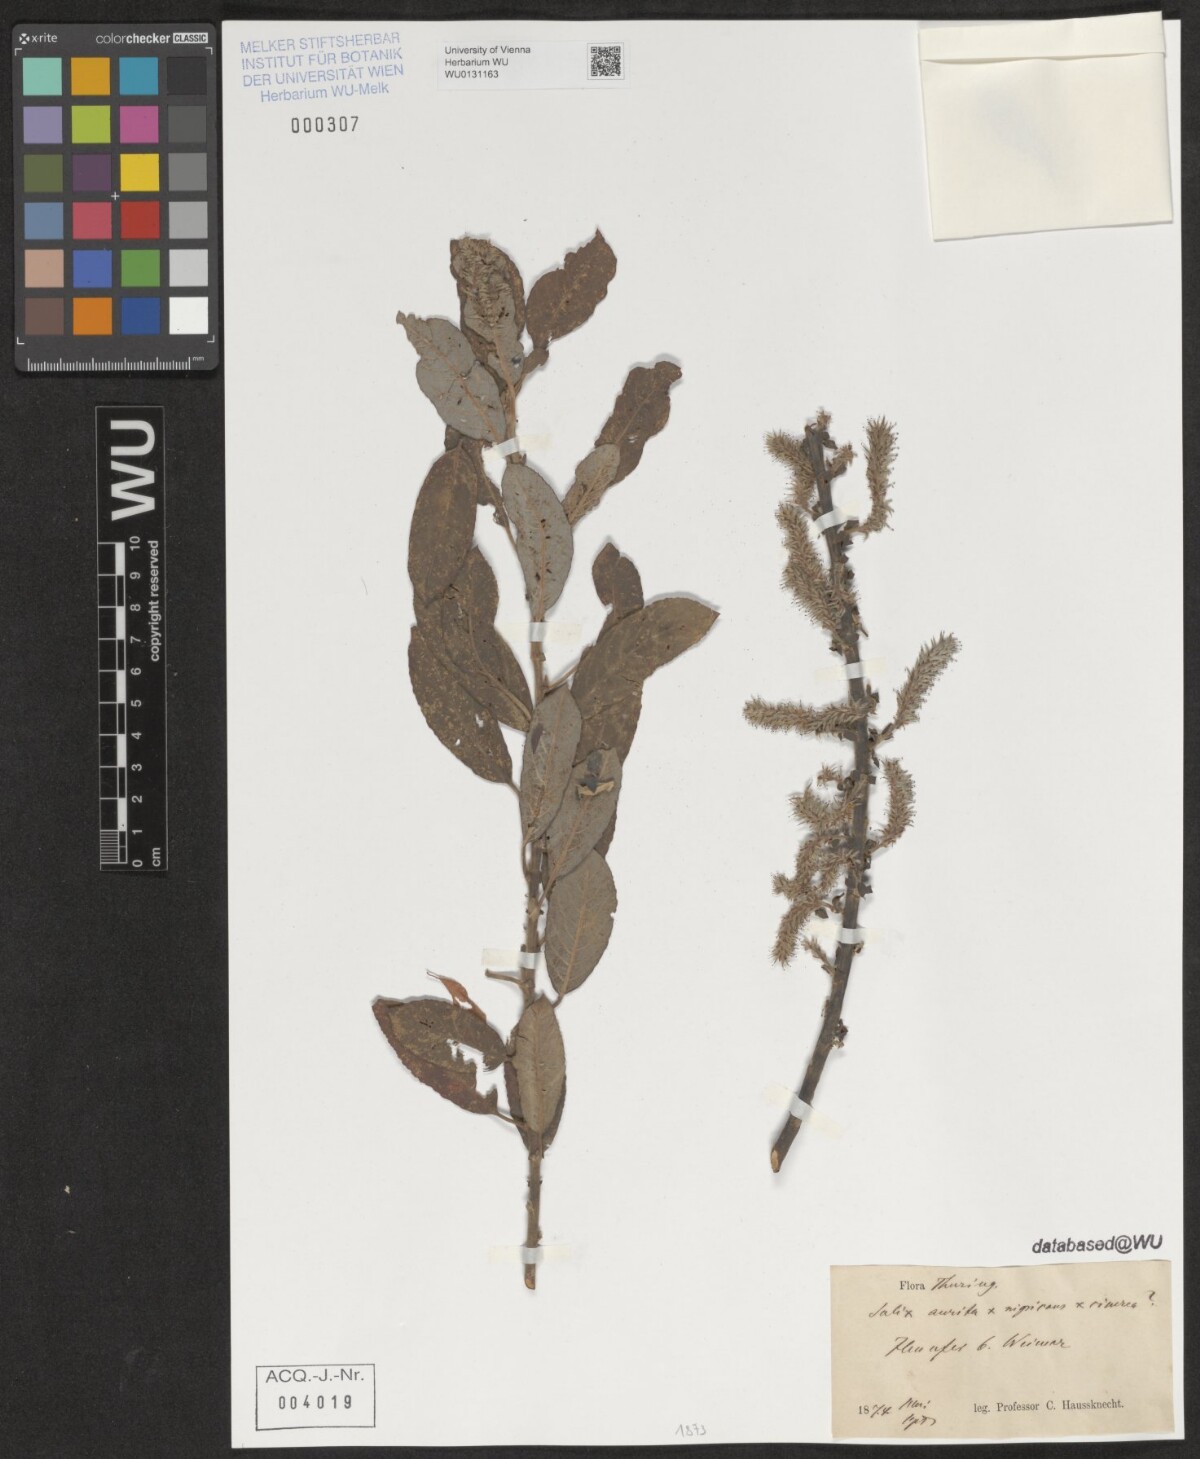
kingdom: Plantae
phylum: Tracheophyta
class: Magnoliopsida
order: Malpighiales
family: Salicaceae
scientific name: Salicaceae
